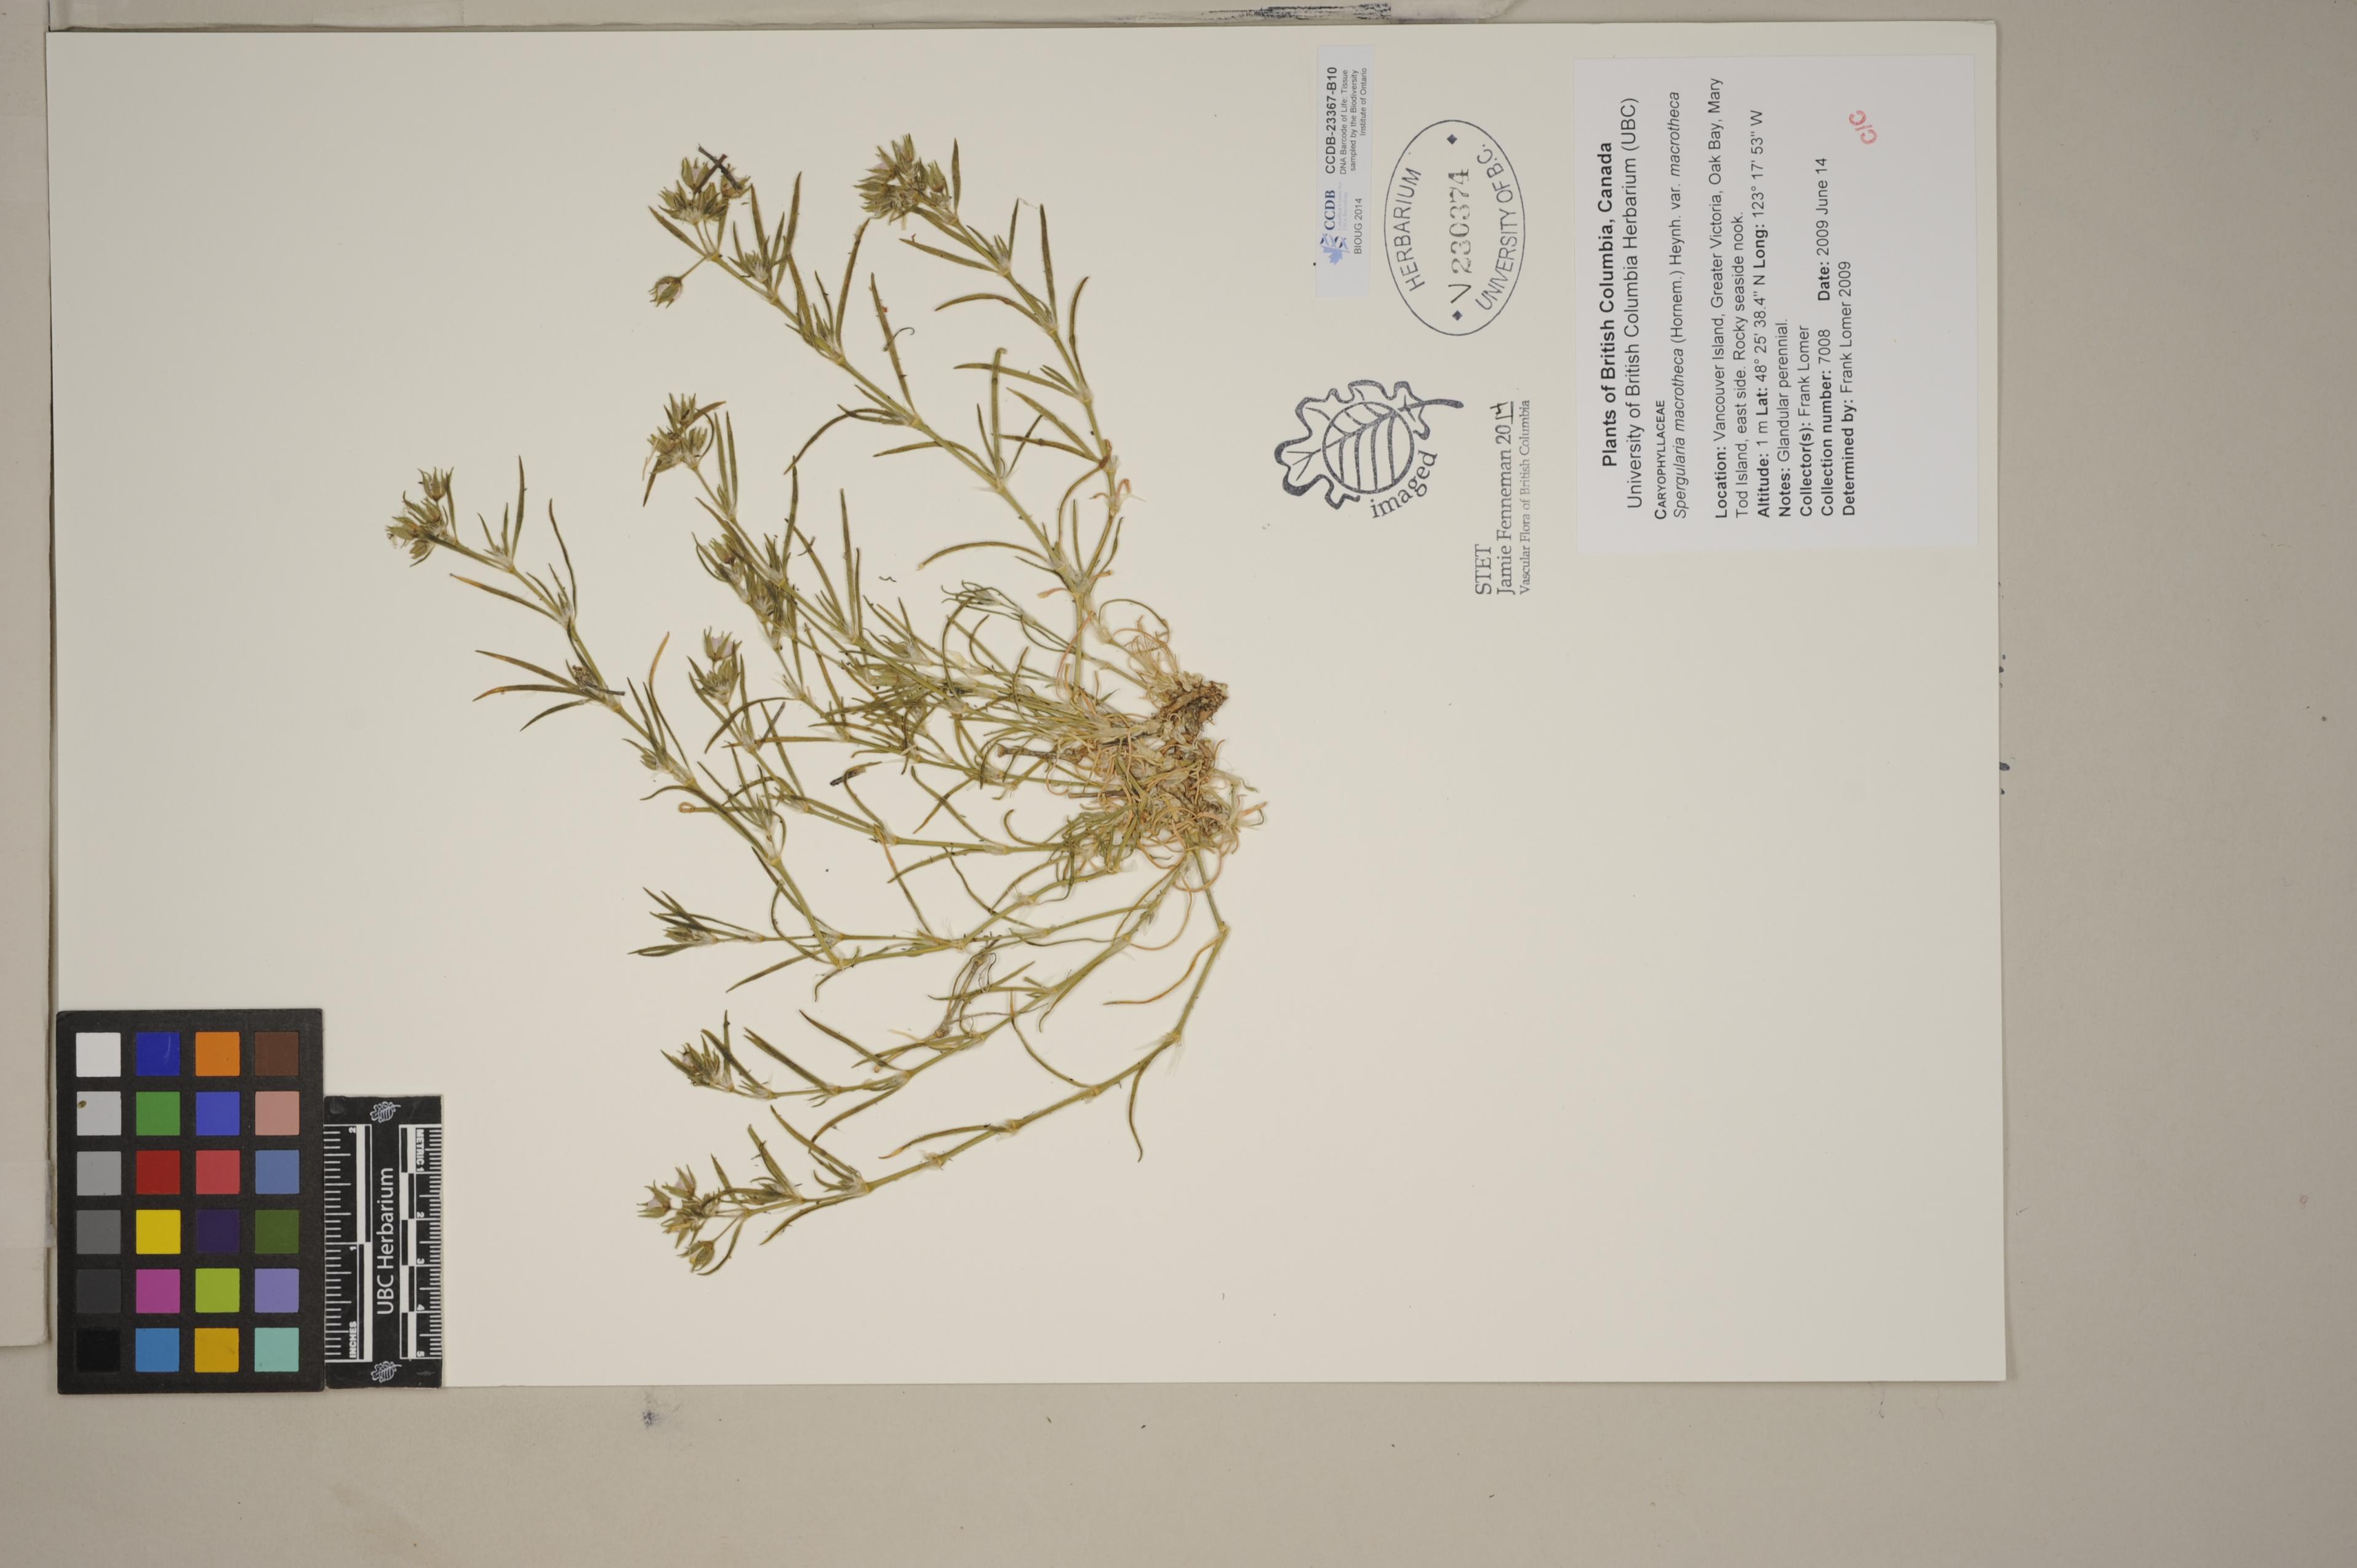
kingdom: Plantae
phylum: Tracheophyta
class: Magnoliopsida
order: Caryophyllales
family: Caryophyllaceae
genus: Spergularia
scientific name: Spergularia macrotheca
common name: Beach sand-spurrey
